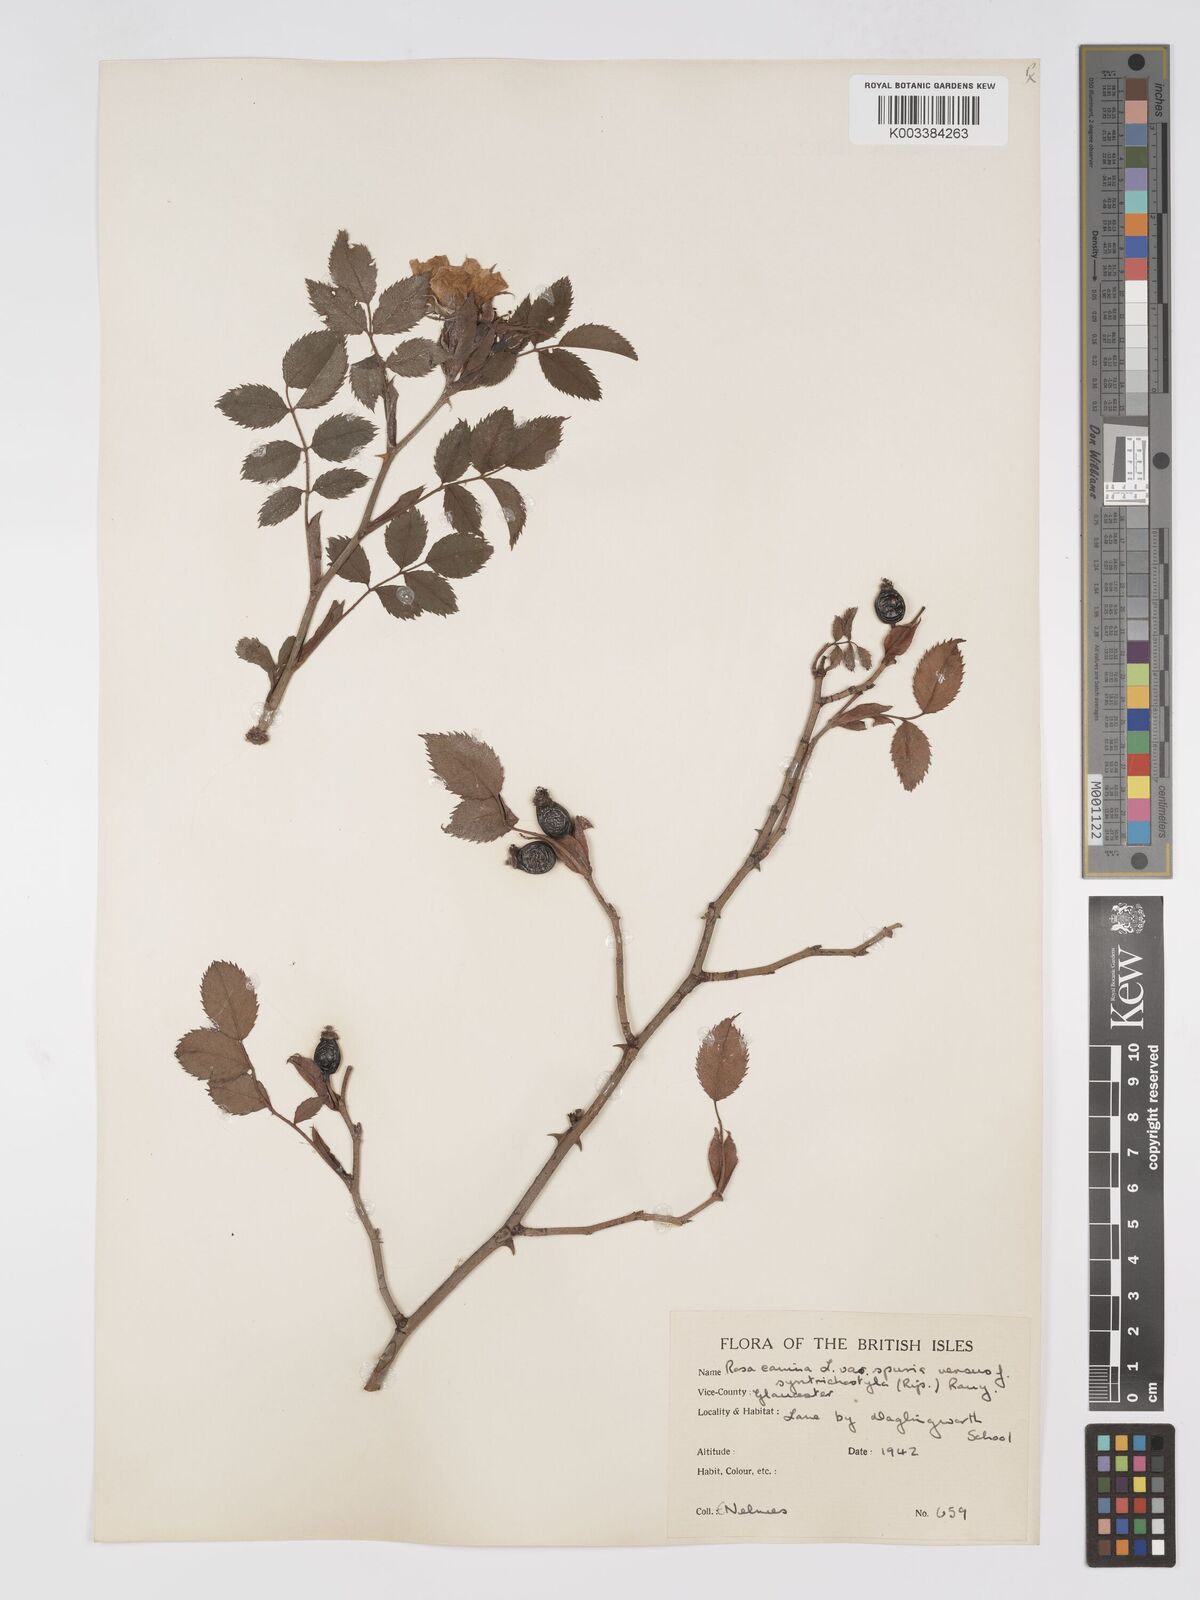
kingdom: Plantae
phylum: Tracheophyta
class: Magnoliopsida
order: Rosales
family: Rosaceae
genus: Rosa
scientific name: Rosa canina
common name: Dog rose
